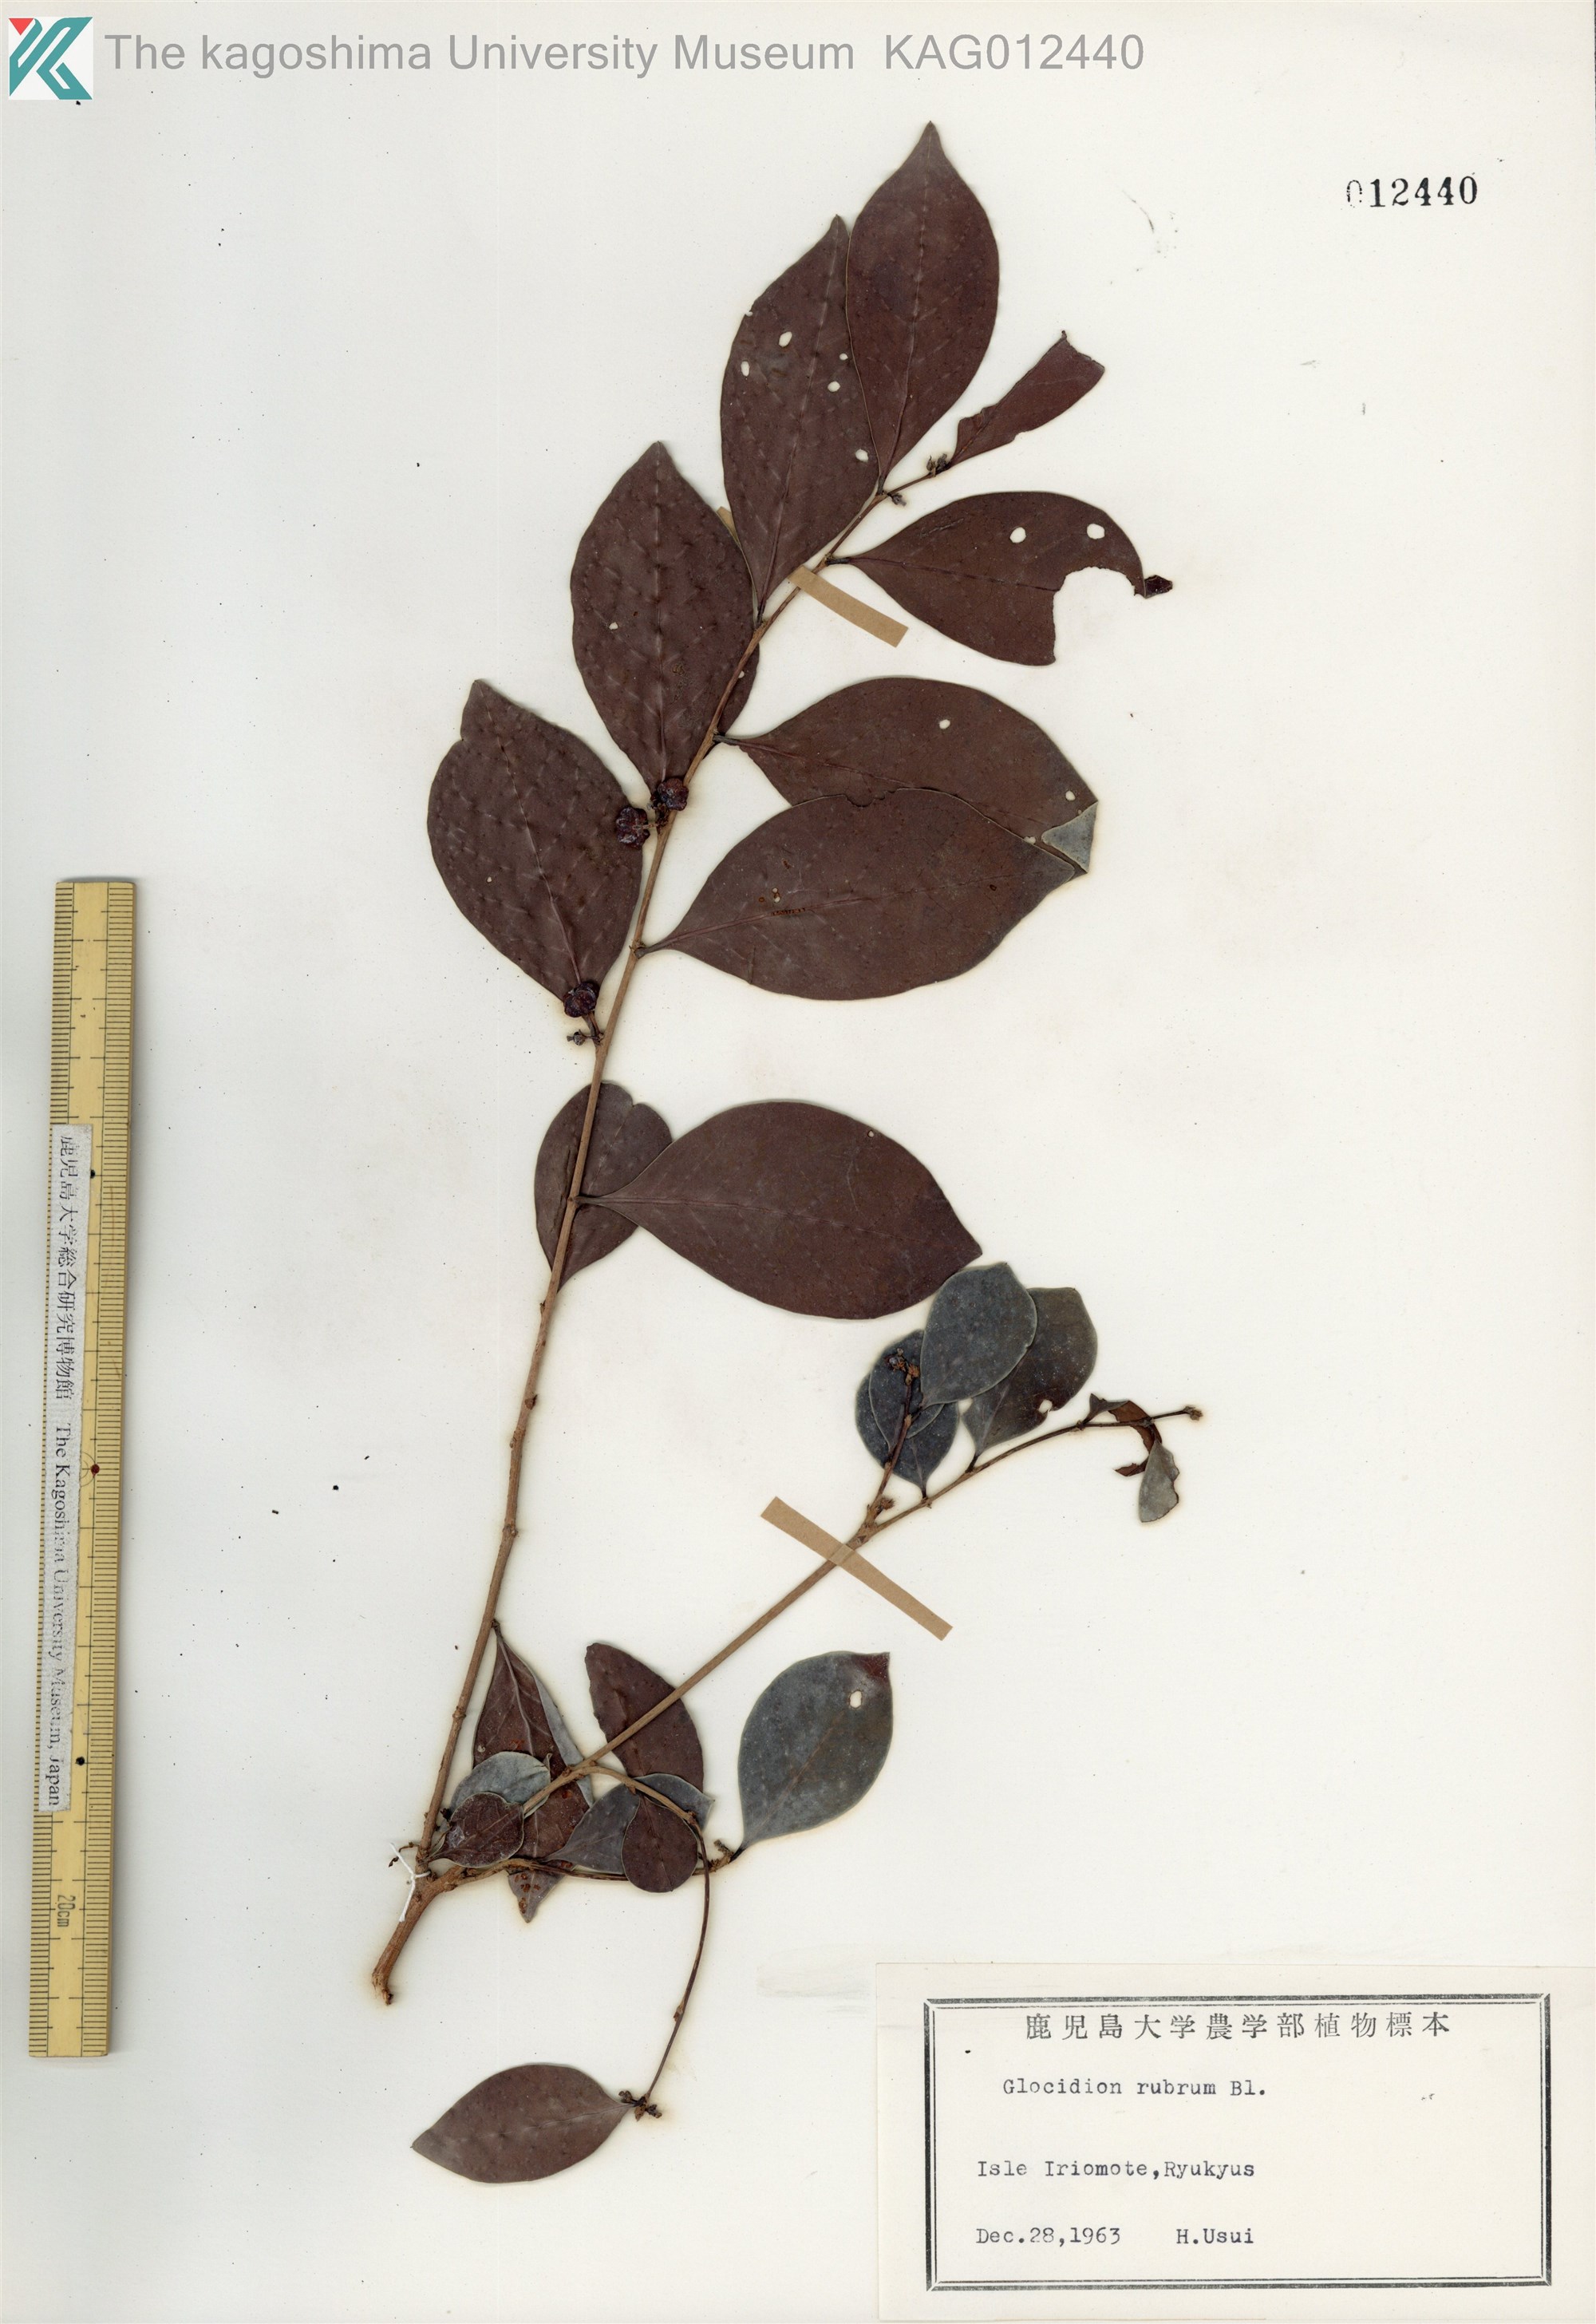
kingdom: Plantae
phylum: Tracheophyta
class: Magnoliopsida
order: Malpighiales
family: Phyllanthaceae
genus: Glochidion
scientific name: Glochidion rubrum
